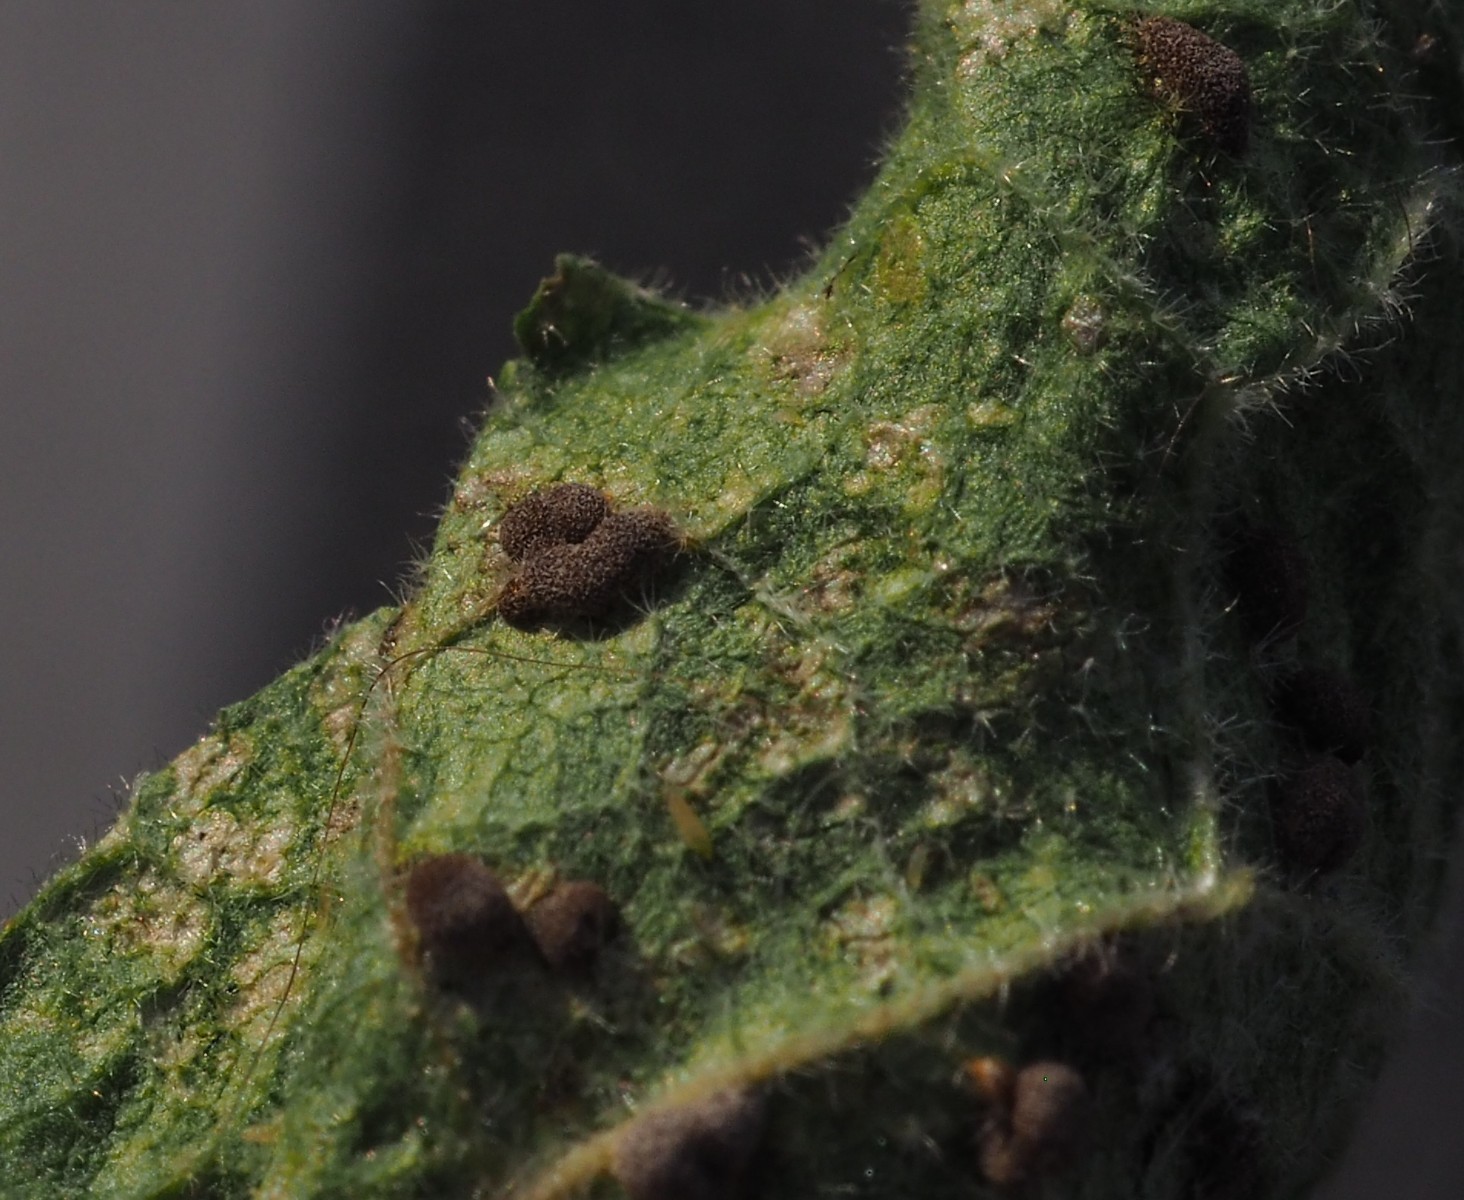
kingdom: Fungi
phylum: Basidiomycota
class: Pucciniomycetes
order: Pucciniales
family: Pucciniaceae
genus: Puccinia
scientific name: Puccinia malvacearum
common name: stokrose-tvecellerust
